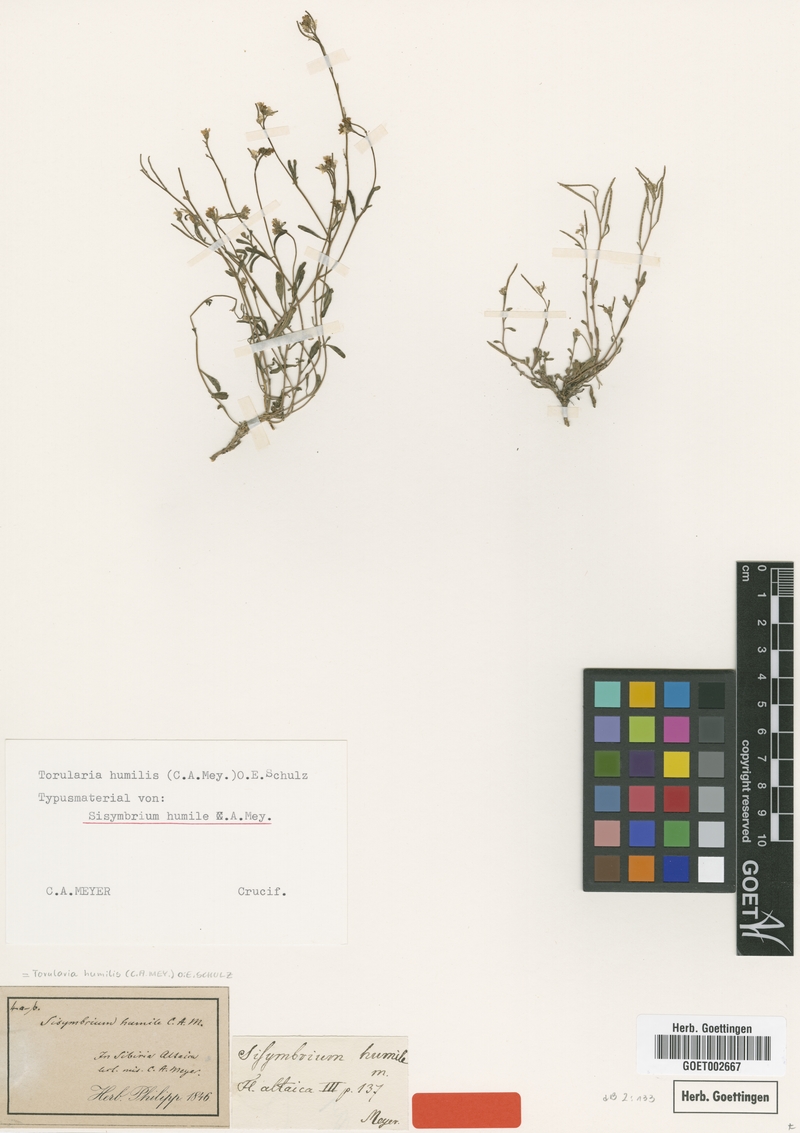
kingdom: Plantae
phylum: Tracheophyta
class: Magnoliopsida
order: Brassicales
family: Brassicaceae
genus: Braya
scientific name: Braya humilis
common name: Alpine northern rockcress
